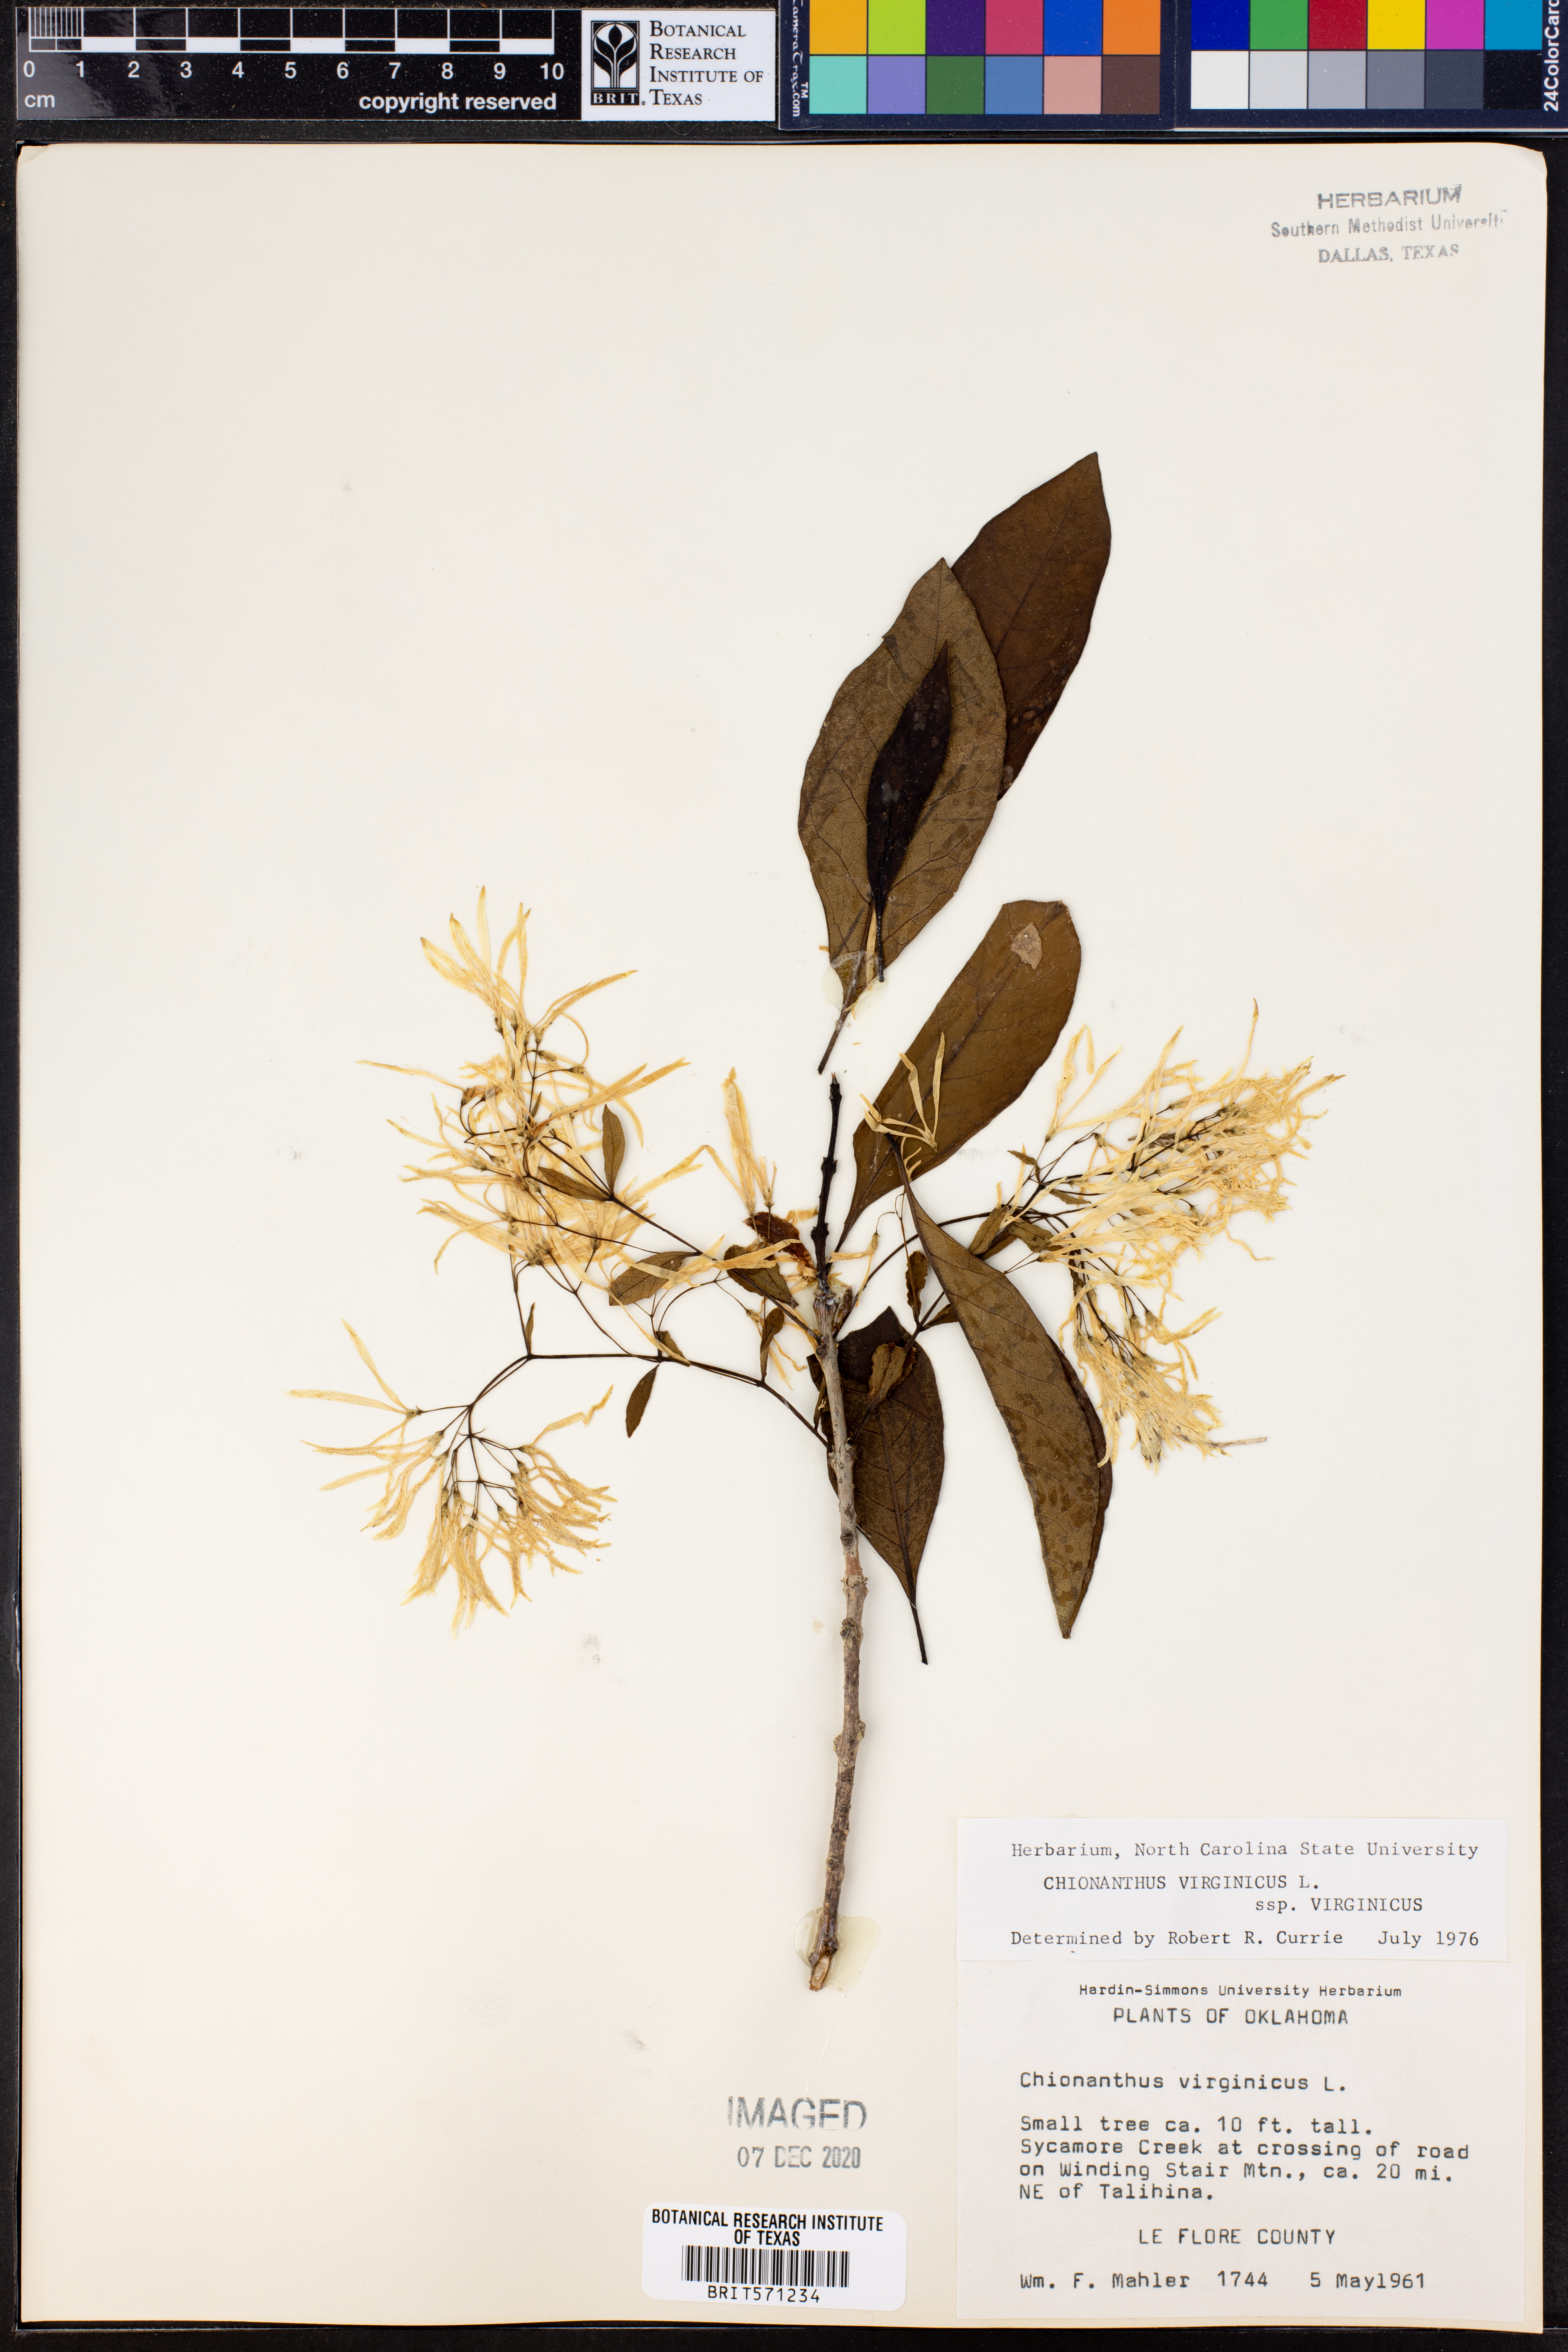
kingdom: Plantae
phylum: Tracheophyta
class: Magnoliopsida
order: Lamiales
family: Oleaceae
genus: Chionanthus
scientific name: Chionanthus virginicus
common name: American fringetree
